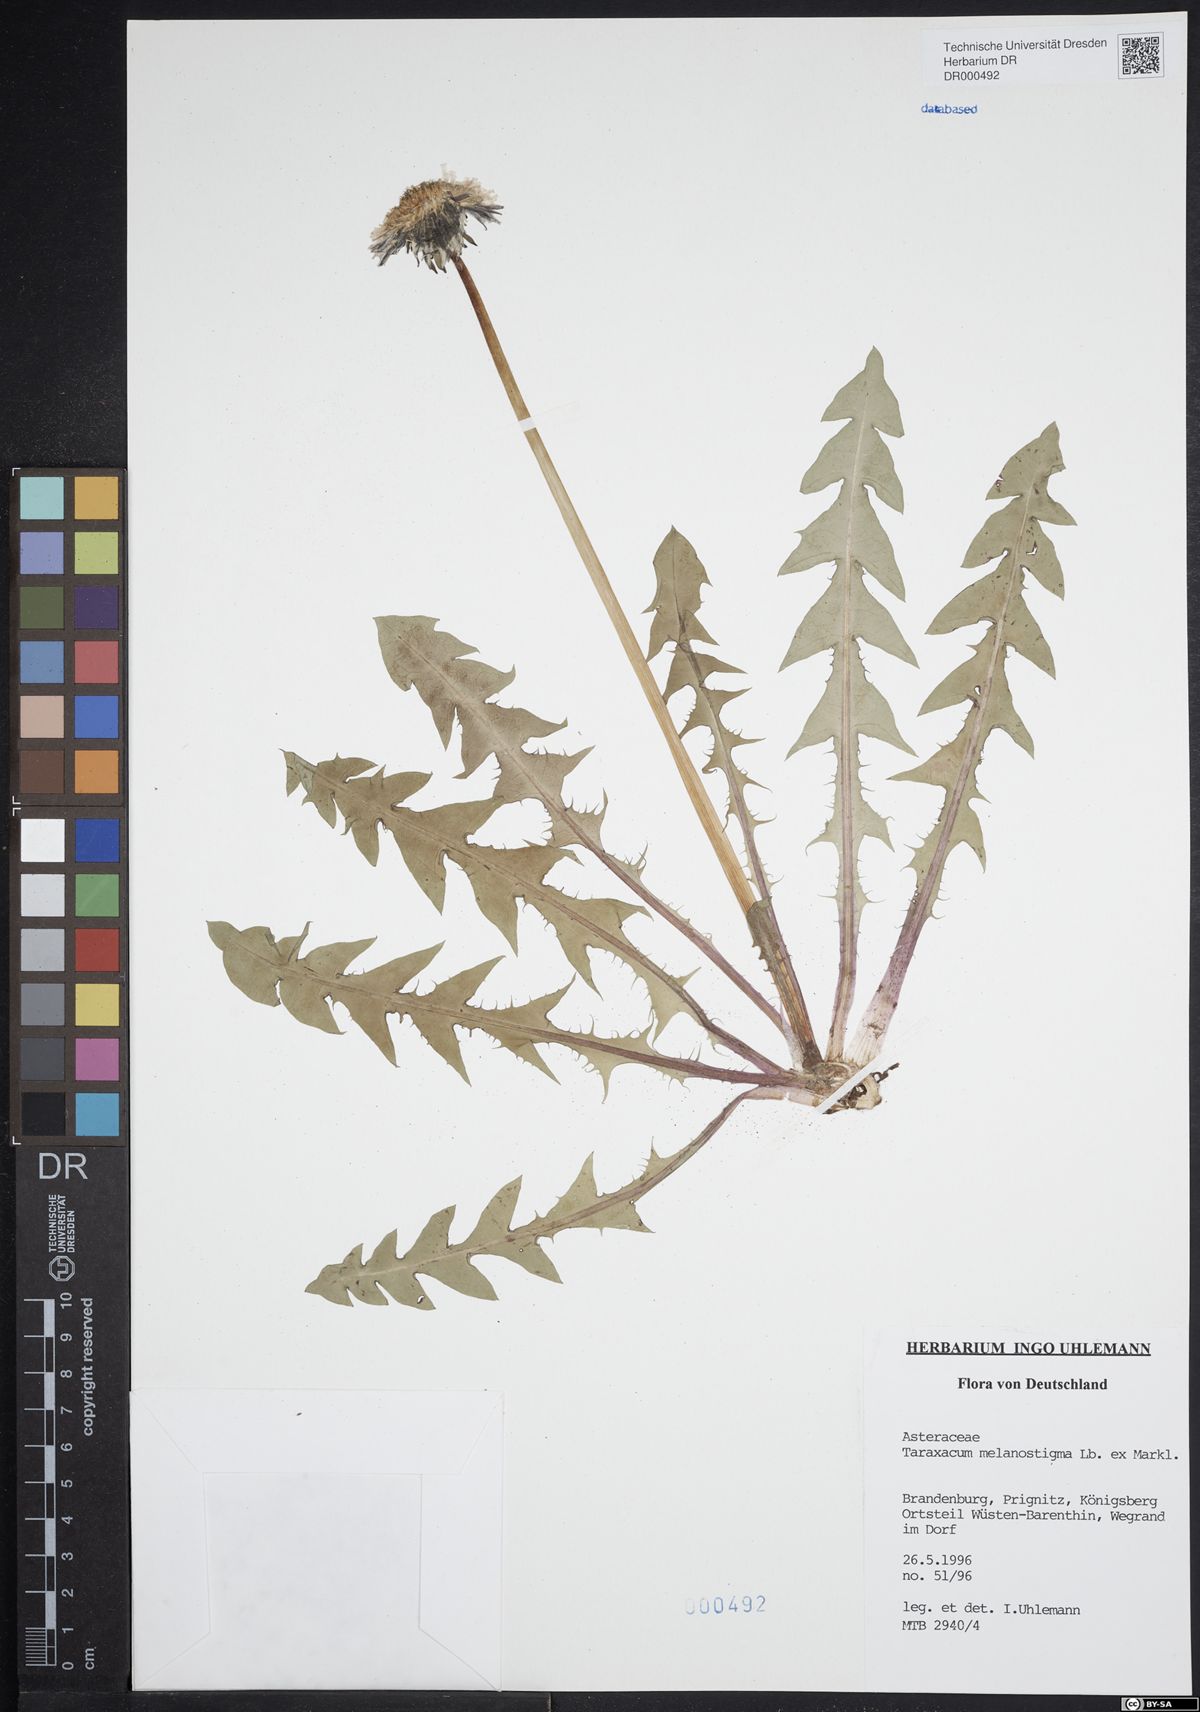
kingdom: Plantae
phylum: Tracheophyta
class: Magnoliopsida
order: Asterales
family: Asteraceae
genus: Taraxacum
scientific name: Taraxacum melanostigma
